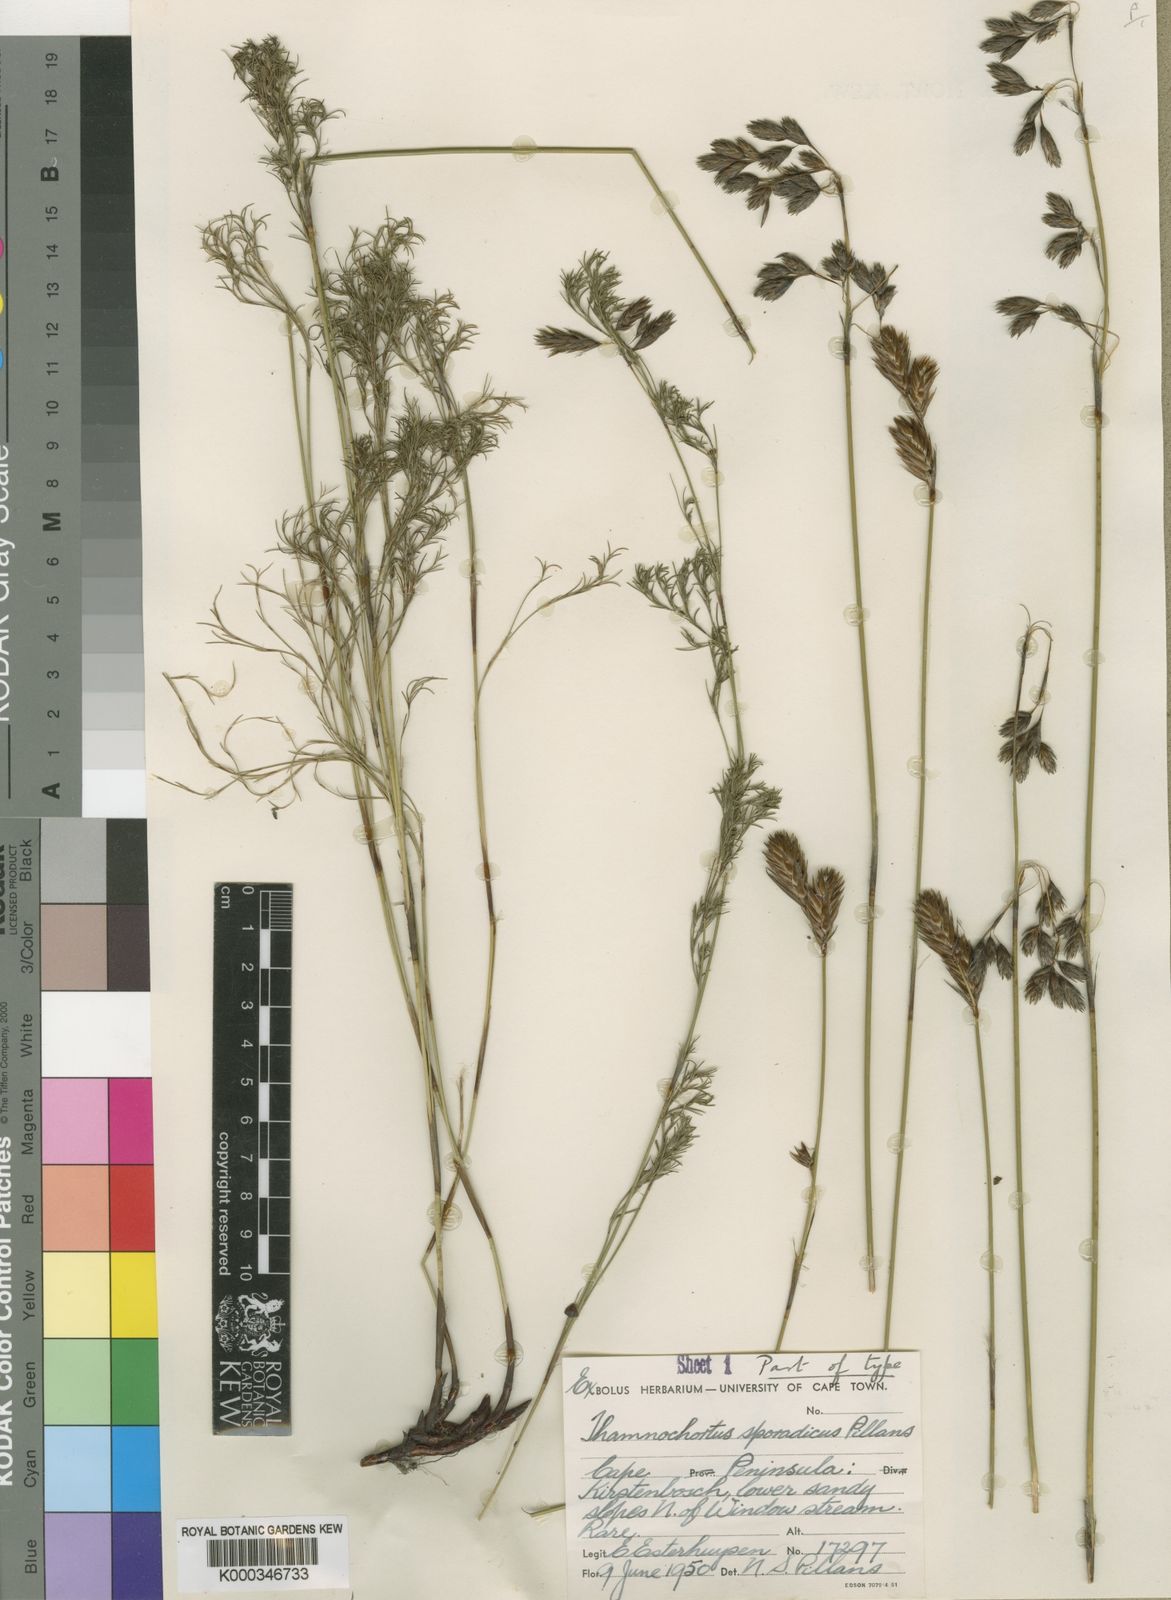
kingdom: Plantae
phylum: Tracheophyta
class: Liliopsida
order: Poales
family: Restionaceae
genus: Thamnochortus
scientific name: Thamnochortus sporadicus
